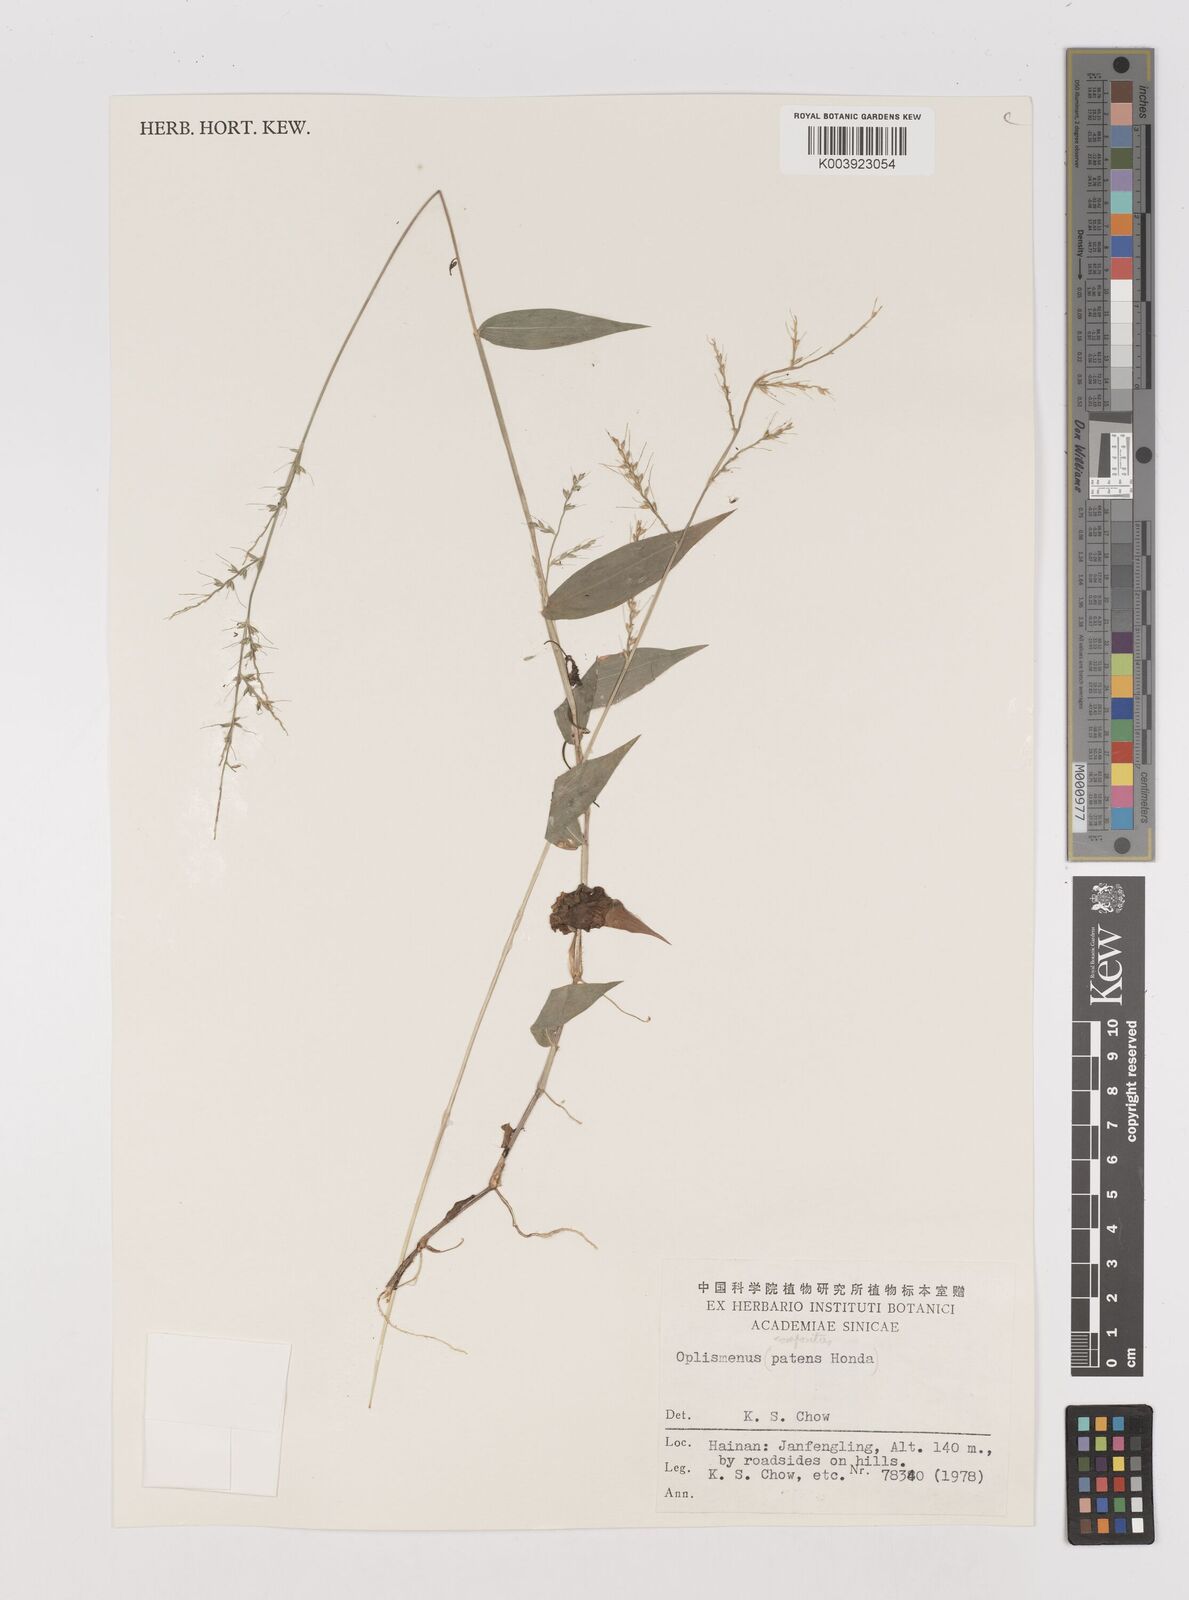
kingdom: Plantae
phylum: Tracheophyta
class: Liliopsida
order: Poales
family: Poaceae
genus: Oplismenus
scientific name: Oplismenus compositus
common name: Running mountain grass
